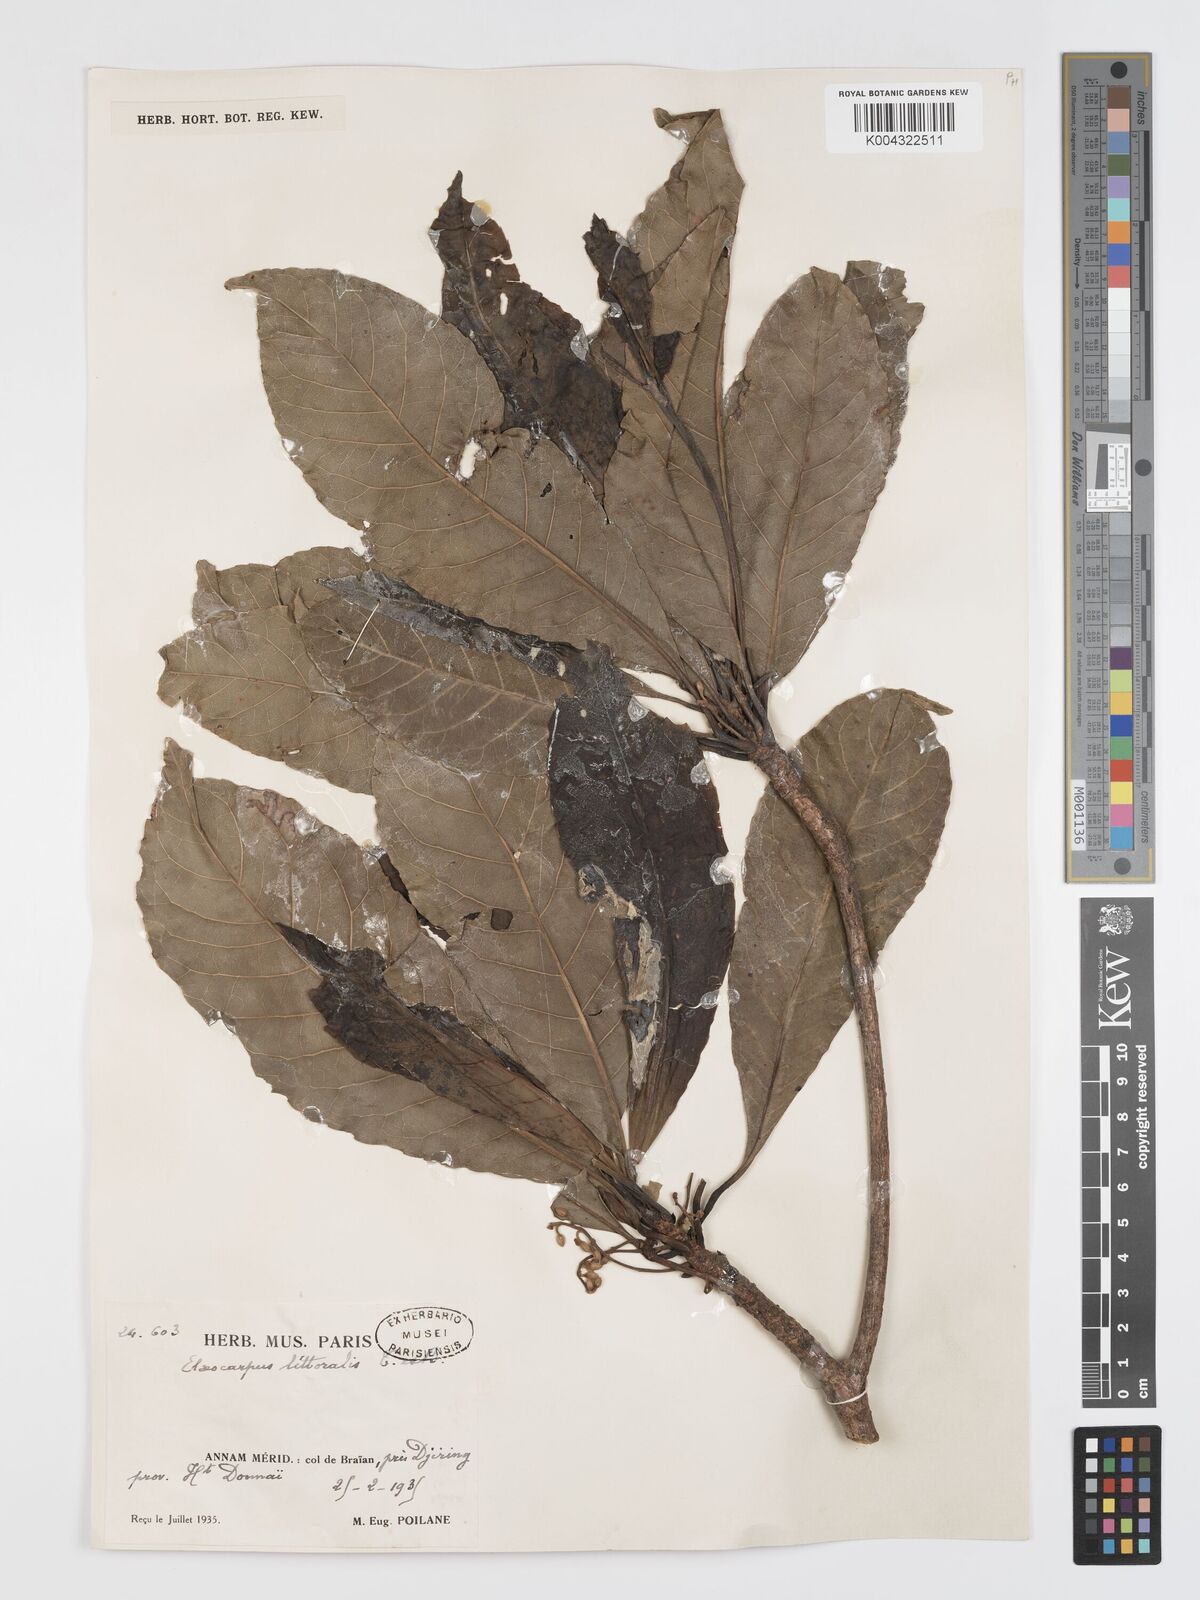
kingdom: Plantae
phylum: Tracheophyta
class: Magnoliopsida
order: Oxalidales
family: Elaeocarpaceae
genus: Elaeocarpus
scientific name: Elaeocarpus macrocerus
